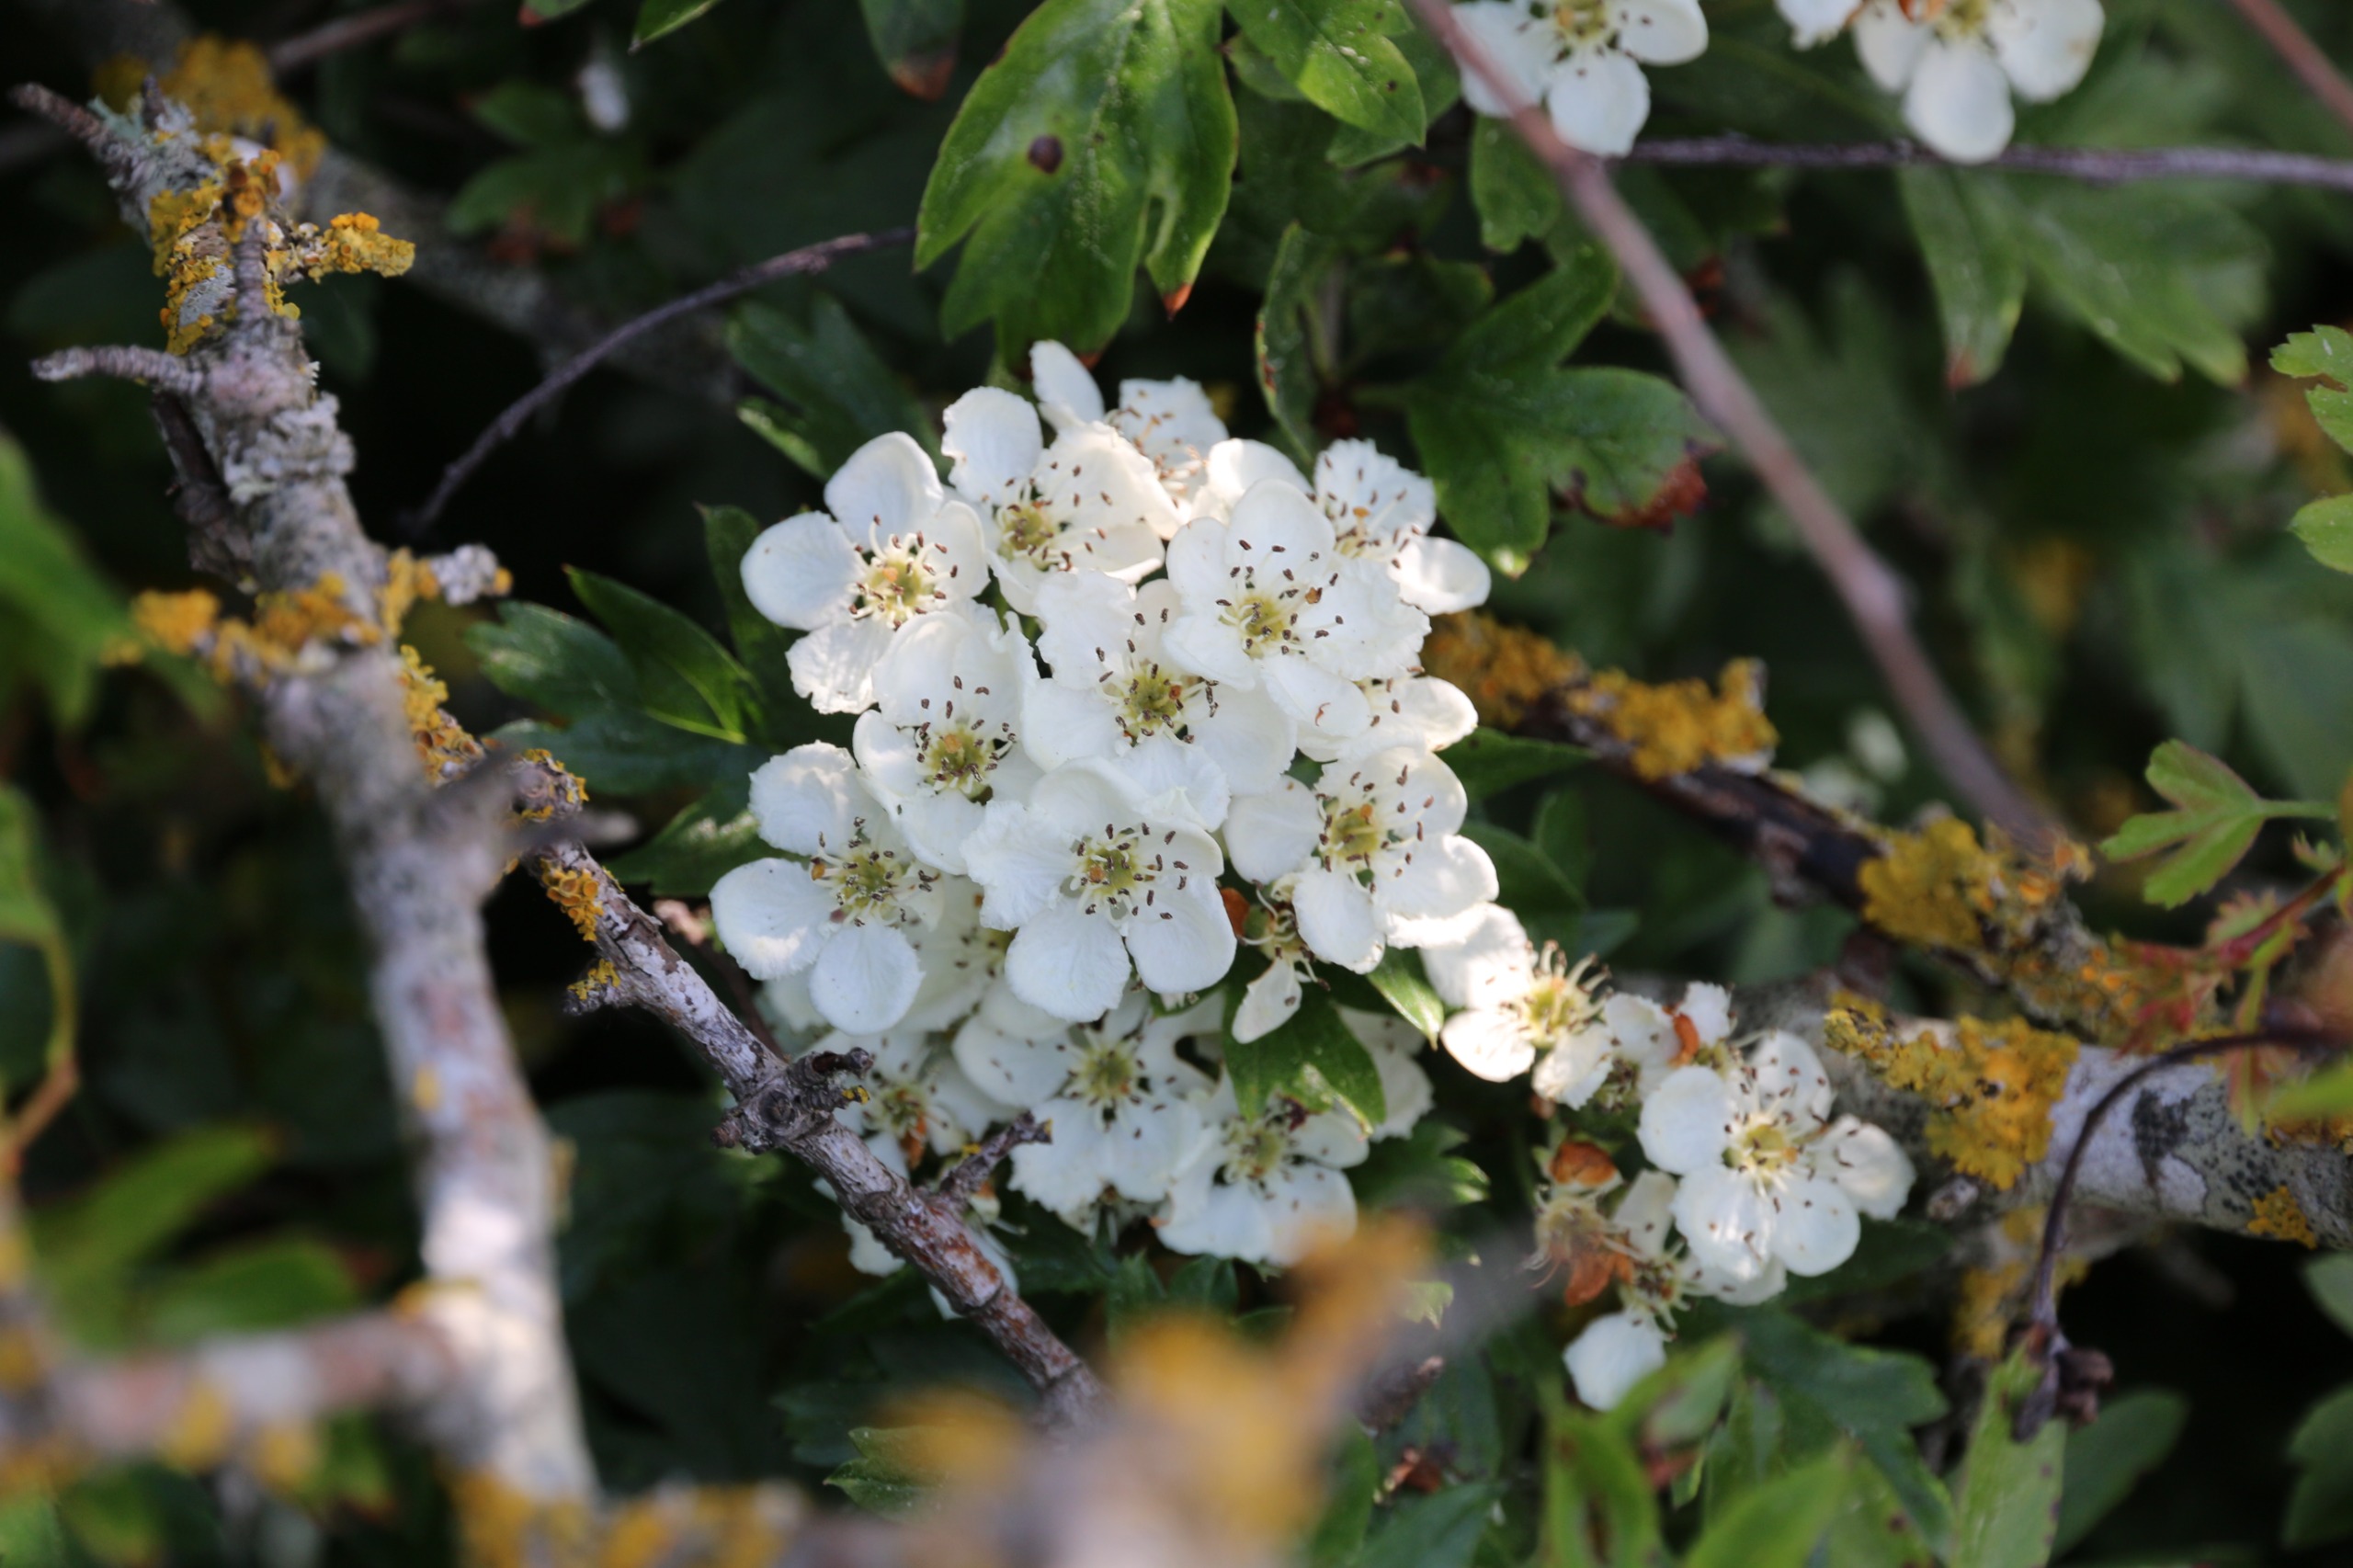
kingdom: Plantae
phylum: Tracheophyta
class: Magnoliopsida
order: Rosales
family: Rosaceae
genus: Crataegus
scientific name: Crataegus monogyna
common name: Engriflet hvidtjørn
